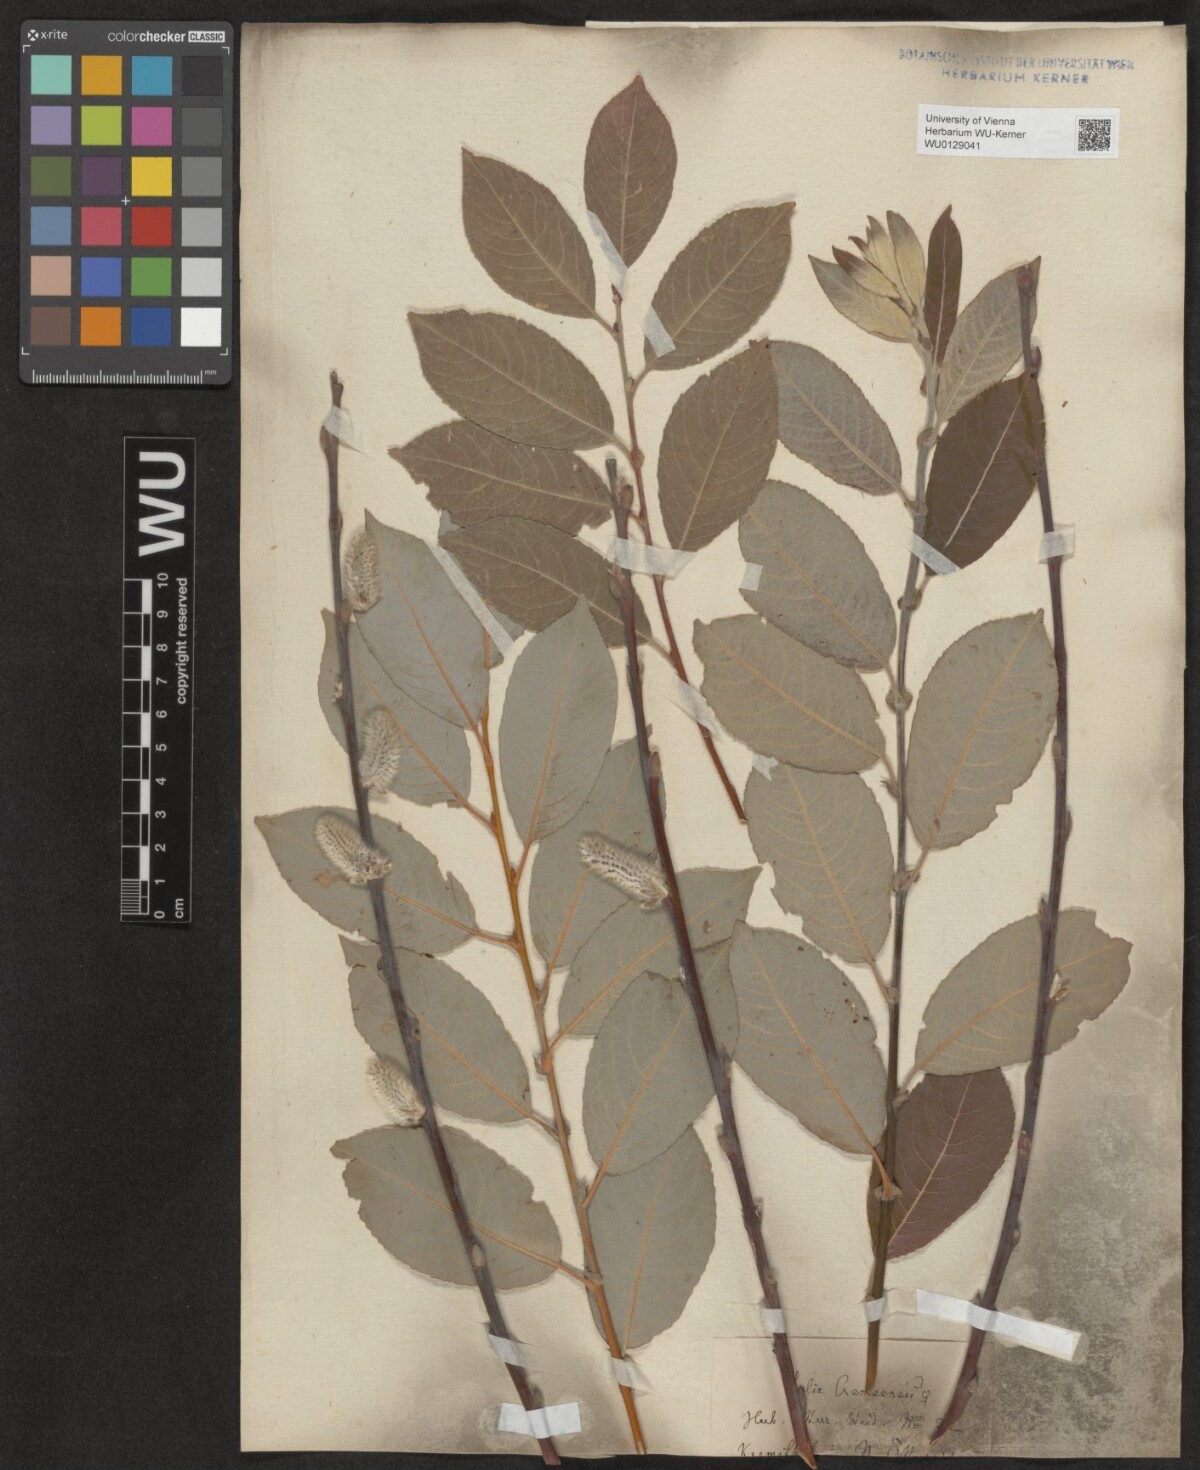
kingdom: Plantae
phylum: Tracheophyta
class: Magnoliopsida
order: Malpighiales
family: Salicaceae
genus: Salix
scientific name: Salix erdingeri
